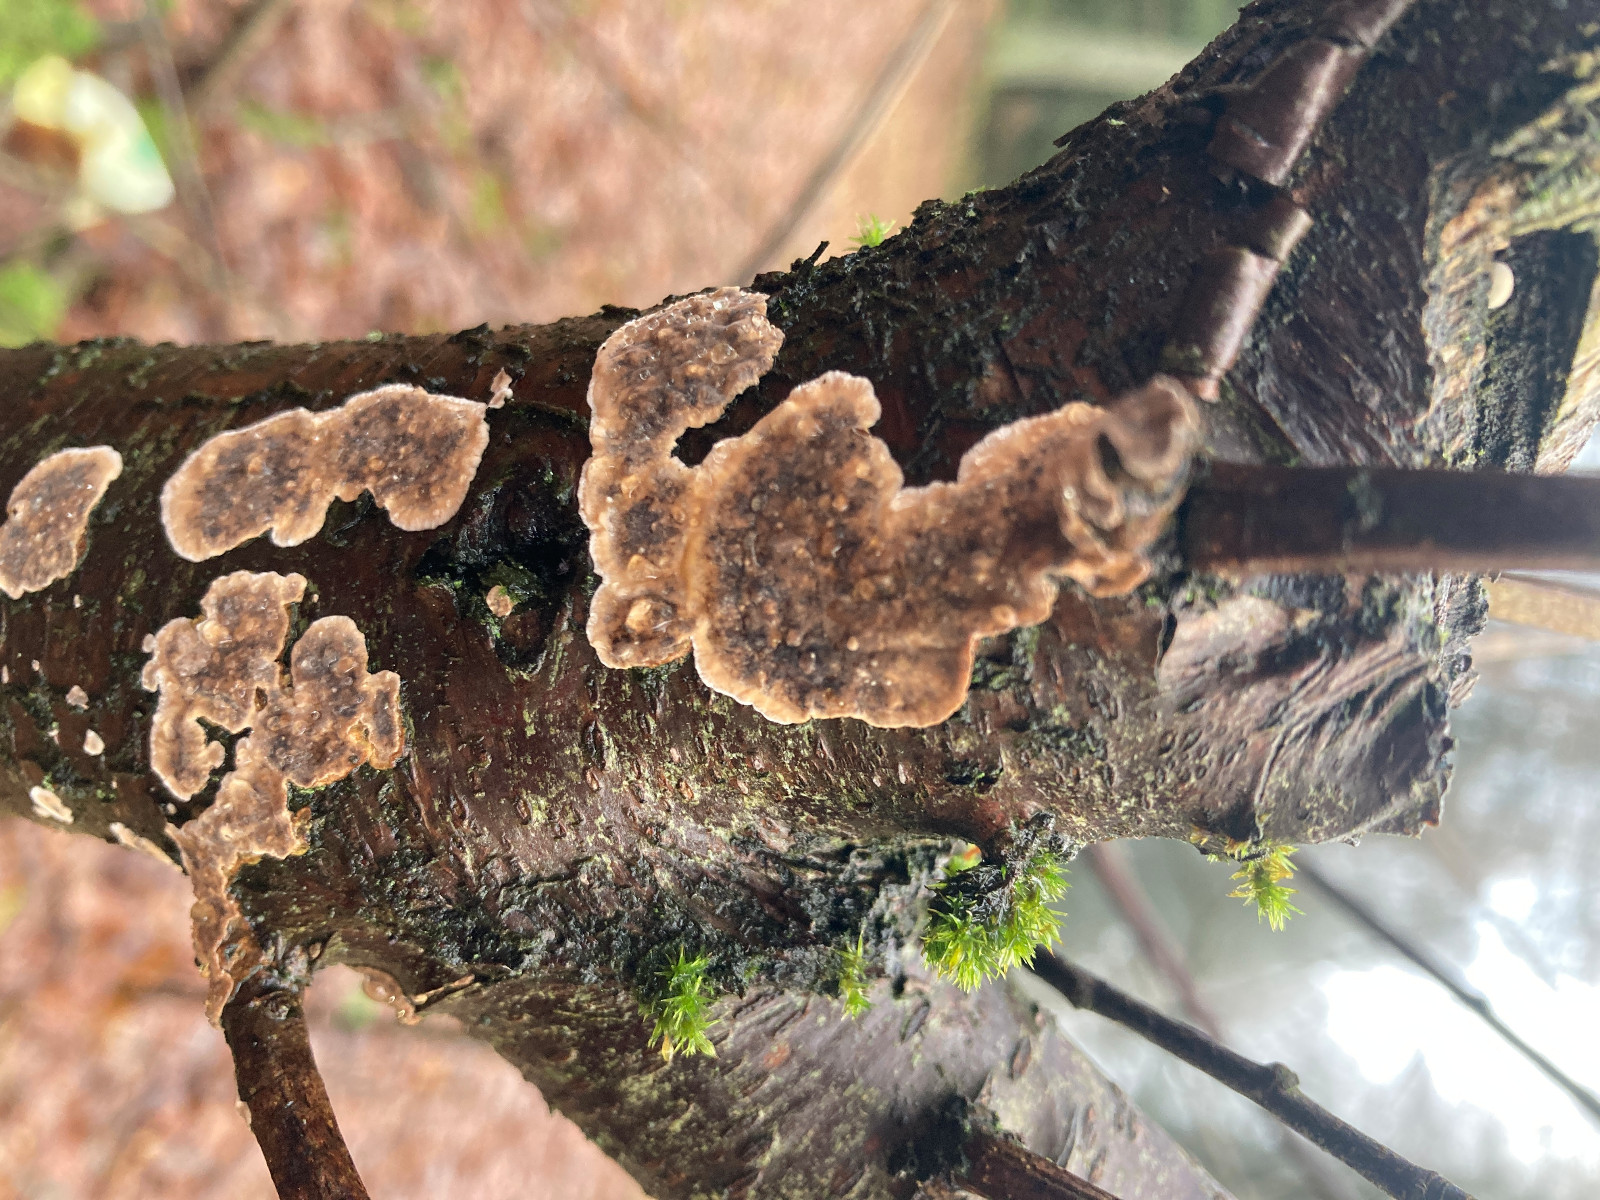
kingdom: Fungi
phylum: Basidiomycota
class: Agaricomycetes
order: Russulales
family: Stereaceae
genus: Stereum
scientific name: Stereum rugosum
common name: rynket lædersvamp
